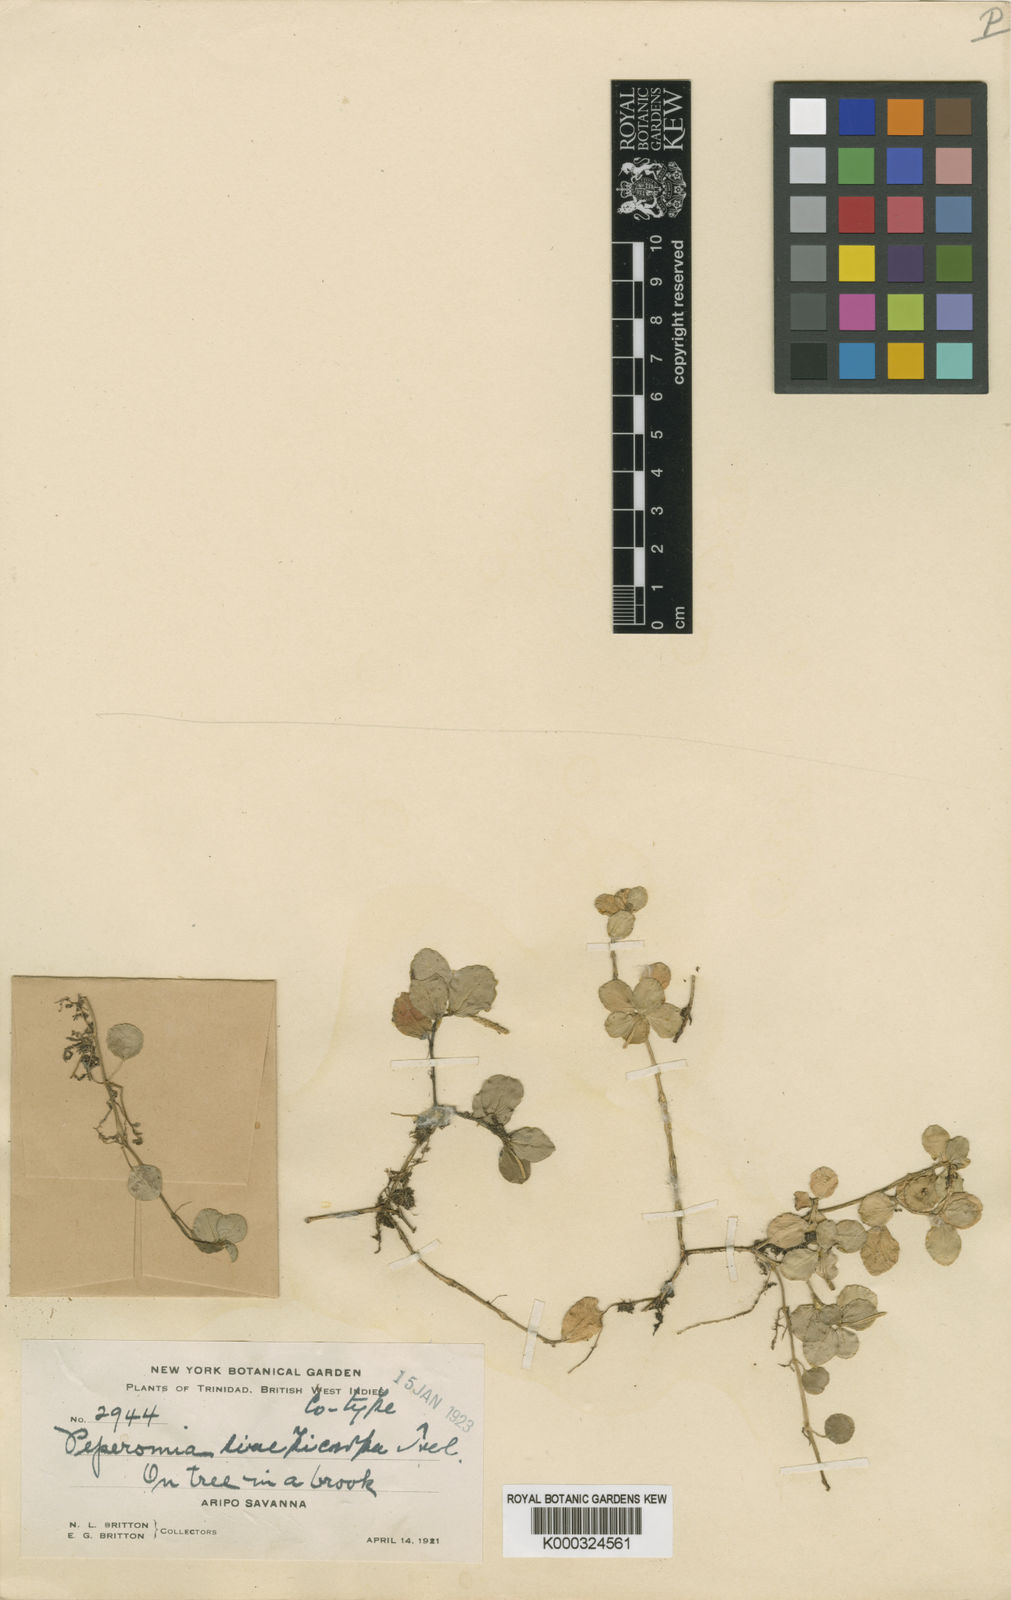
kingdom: Plantae
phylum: Tracheophyta
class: Magnoliopsida
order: Piperales
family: Piperaceae
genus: Peperomia
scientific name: Peperomia
